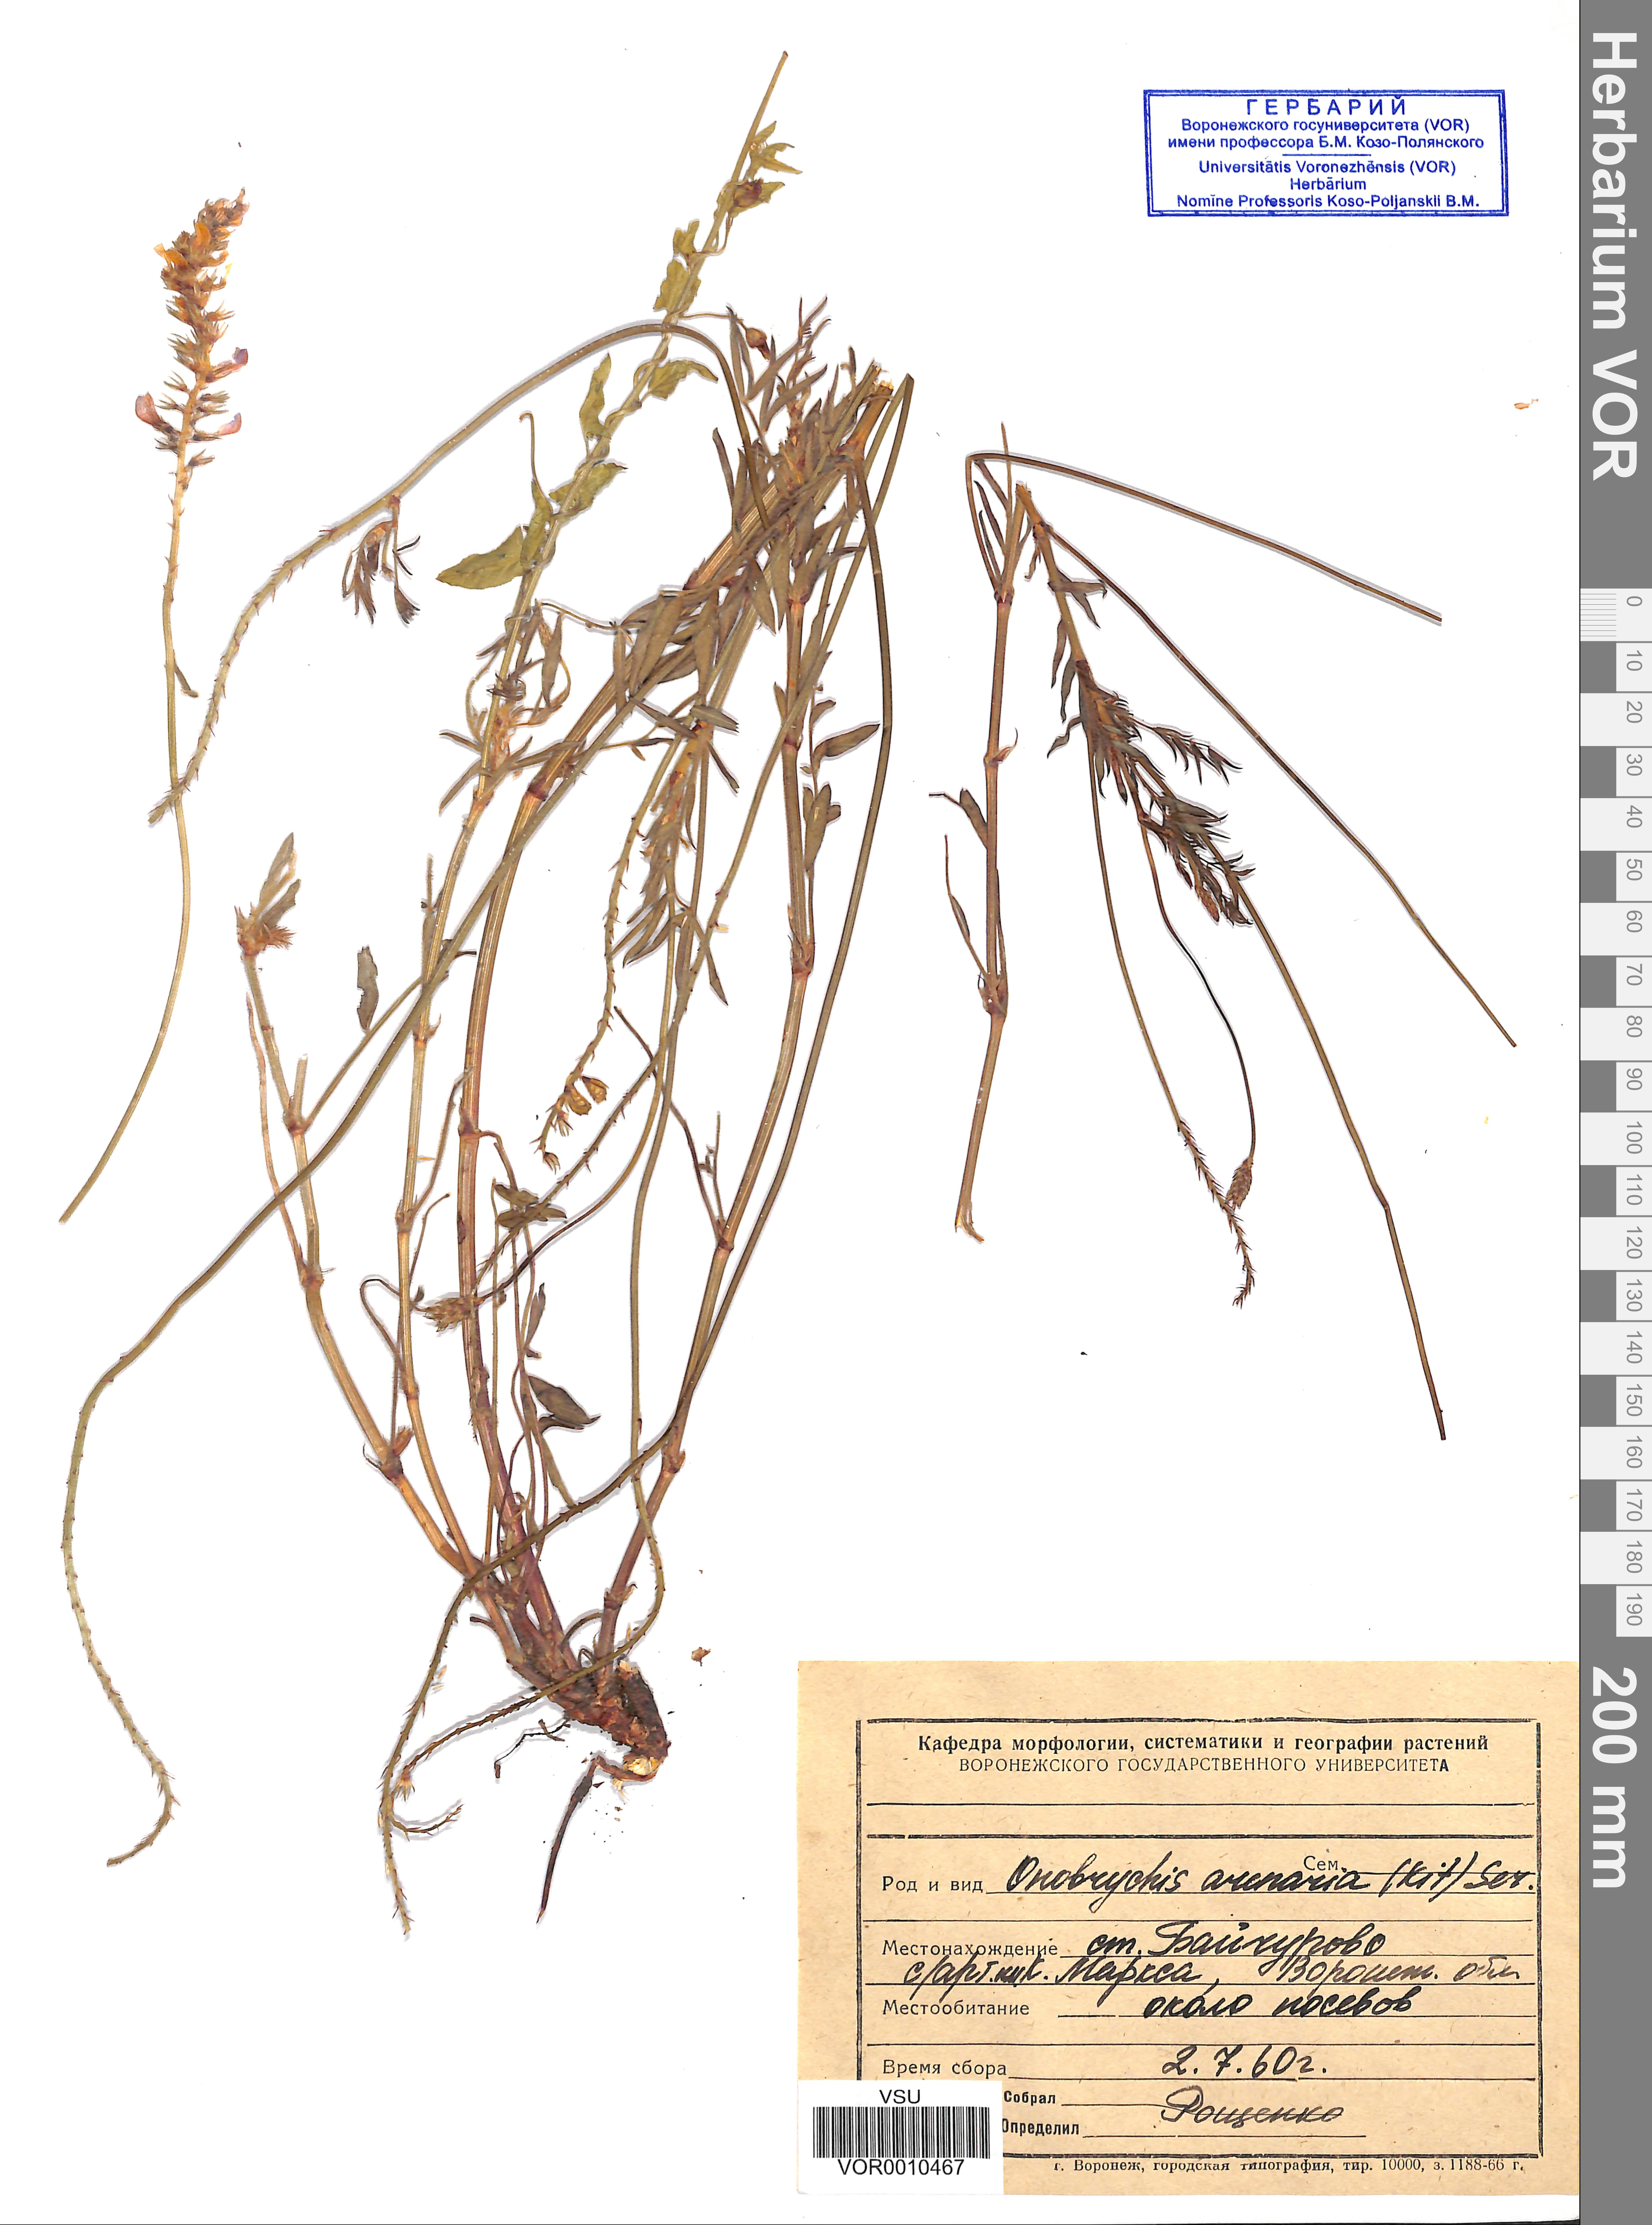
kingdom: Plantae
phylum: Tracheophyta
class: Magnoliopsida
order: Fabales
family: Fabaceae
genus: Onobrychis
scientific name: Onobrychis arenaria
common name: Sand esparcet
